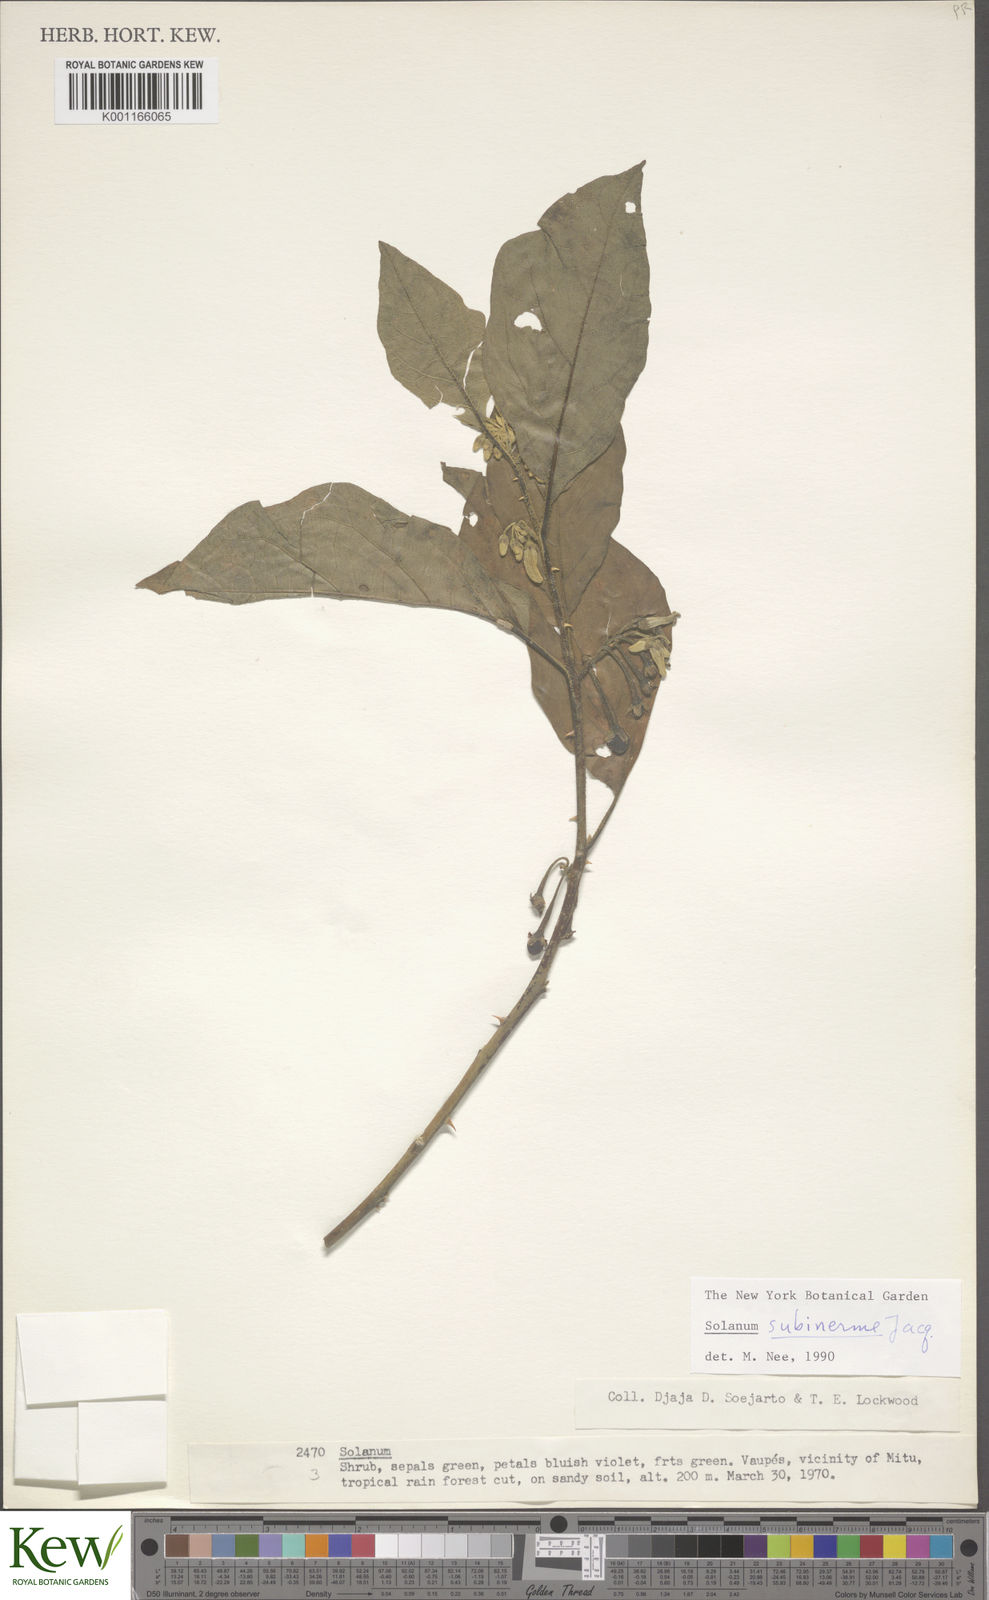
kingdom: Plantae
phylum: Tracheophyta
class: Magnoliopsida
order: Solanales
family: Solanaceae
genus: Solanum
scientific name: Solanum subinerme
